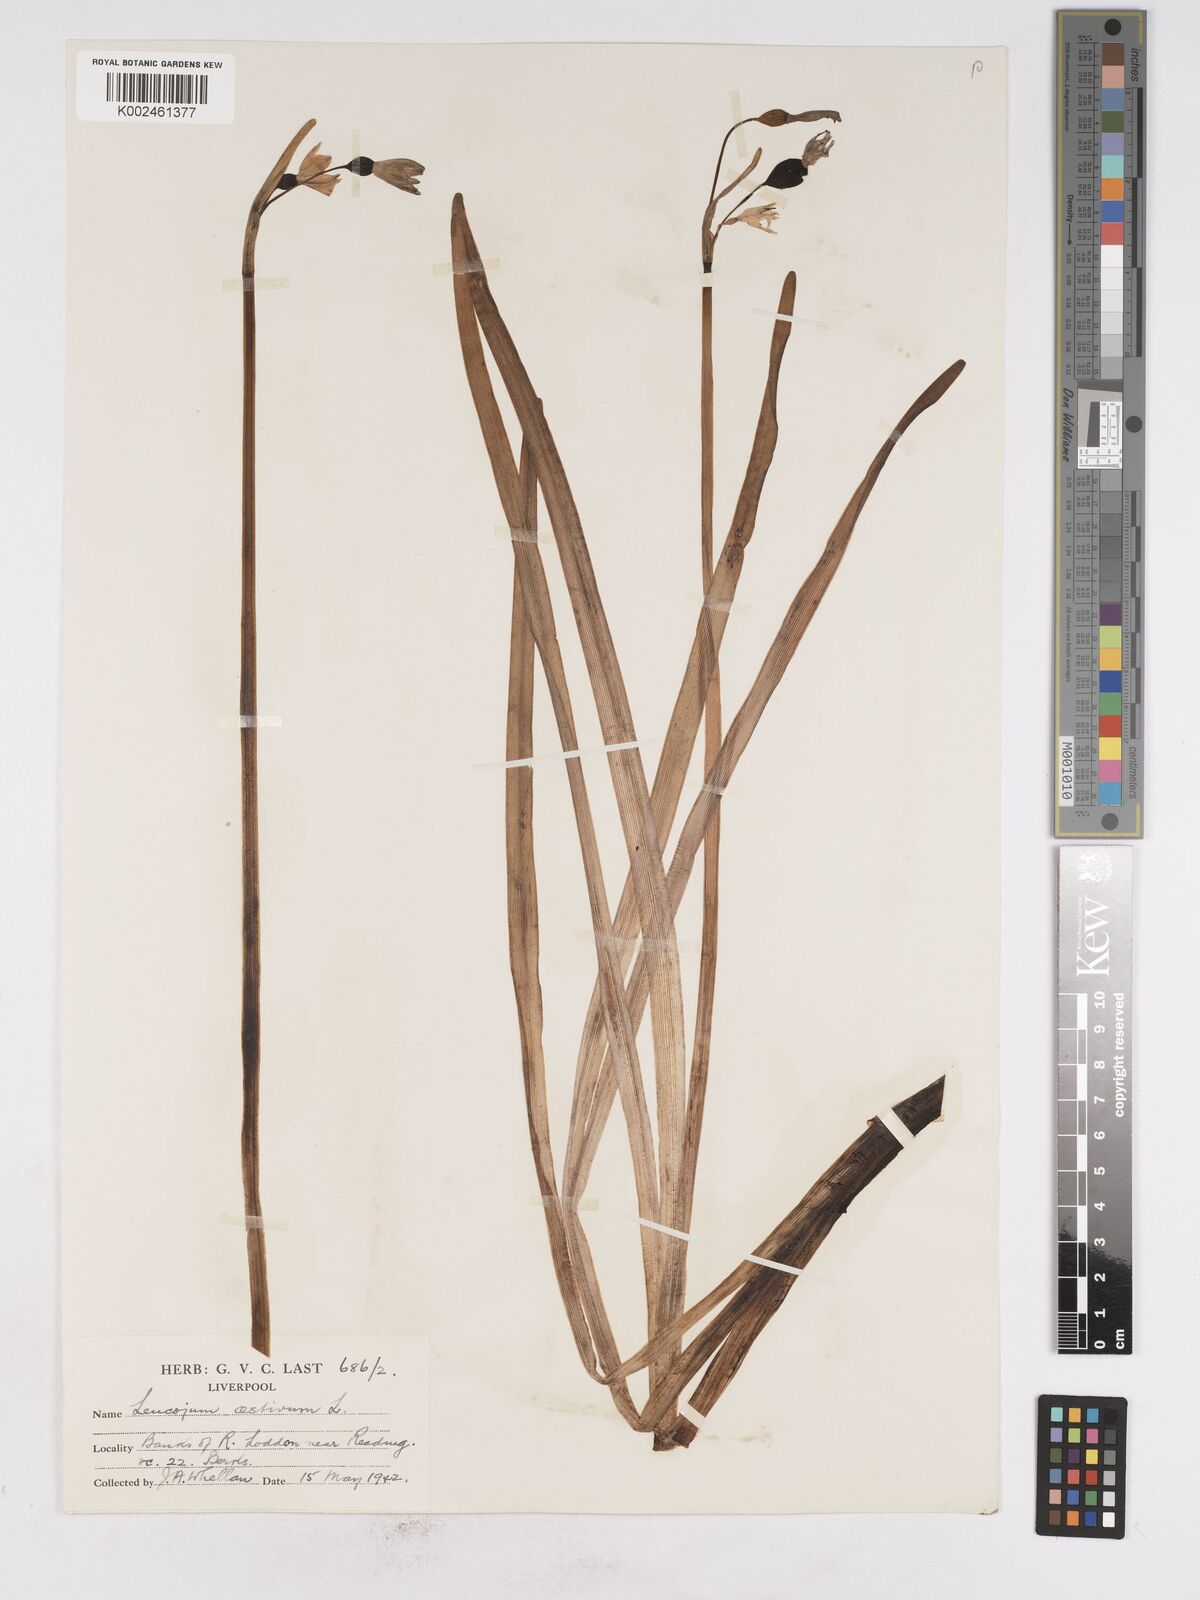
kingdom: Plantae
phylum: Tracheophyta
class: Liliopsida
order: Asparagales
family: Amaryllidaceae
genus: Leucojum
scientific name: Leucojum aestivum
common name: Summer snowflake
